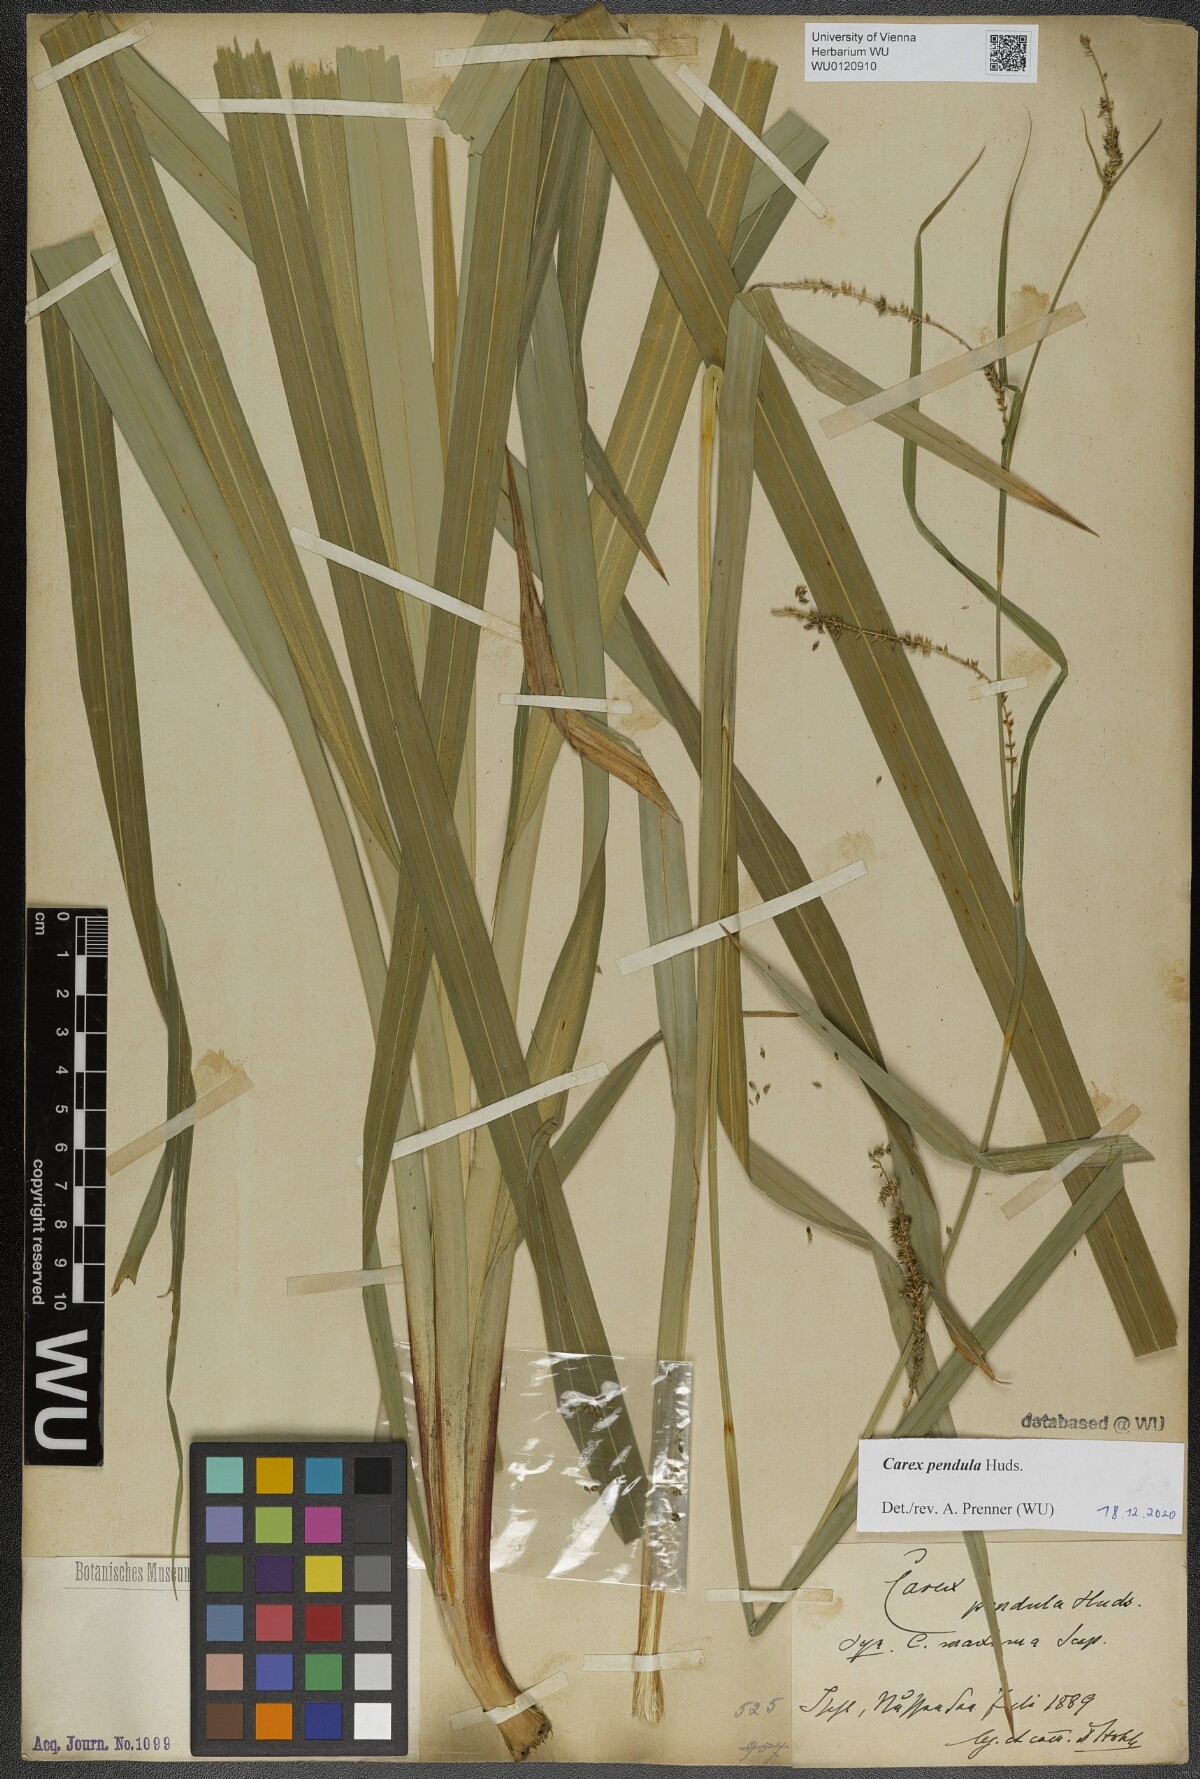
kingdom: Plantae
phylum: Tracheophyta
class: Liliopsida
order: Poales
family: Cyperaceae
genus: Carex
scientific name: Carex agastachys
